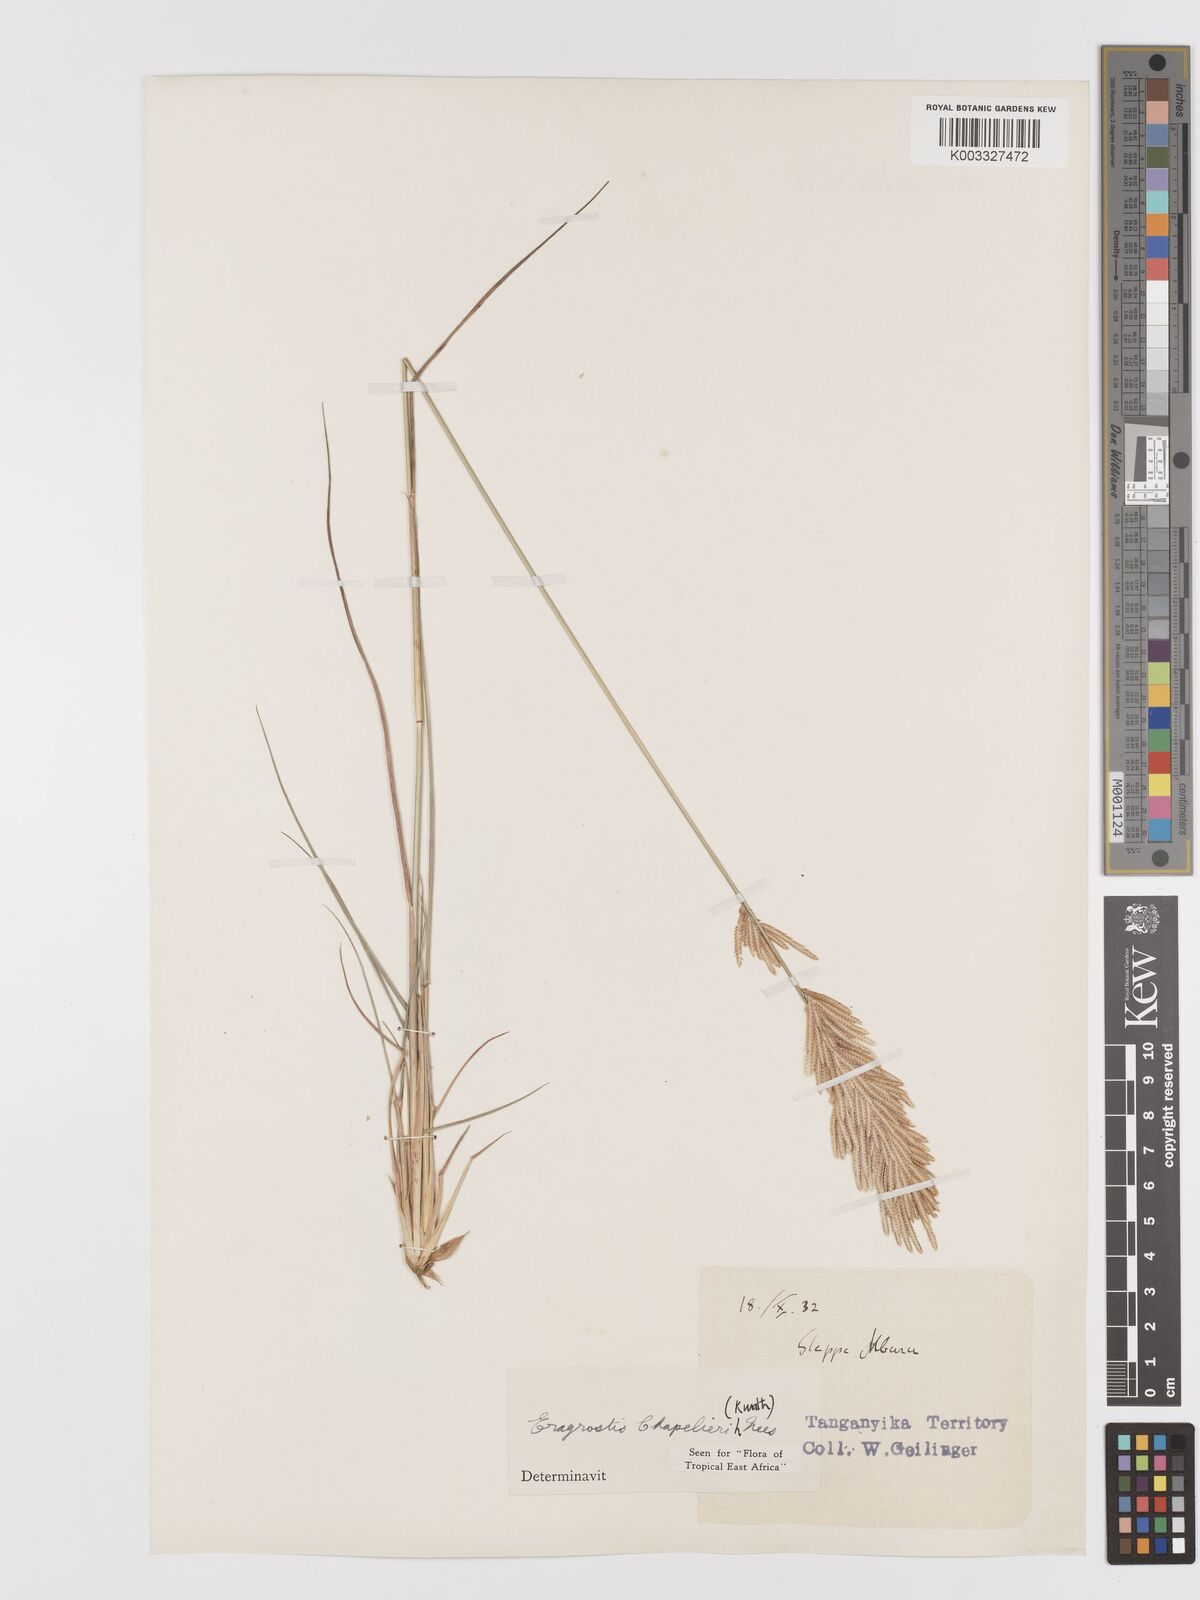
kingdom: Plantae
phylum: Tracheophyta
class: Liliopsida
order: Poales
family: Poaceae
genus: Eragrostis
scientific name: Eragrostis chapelieri
